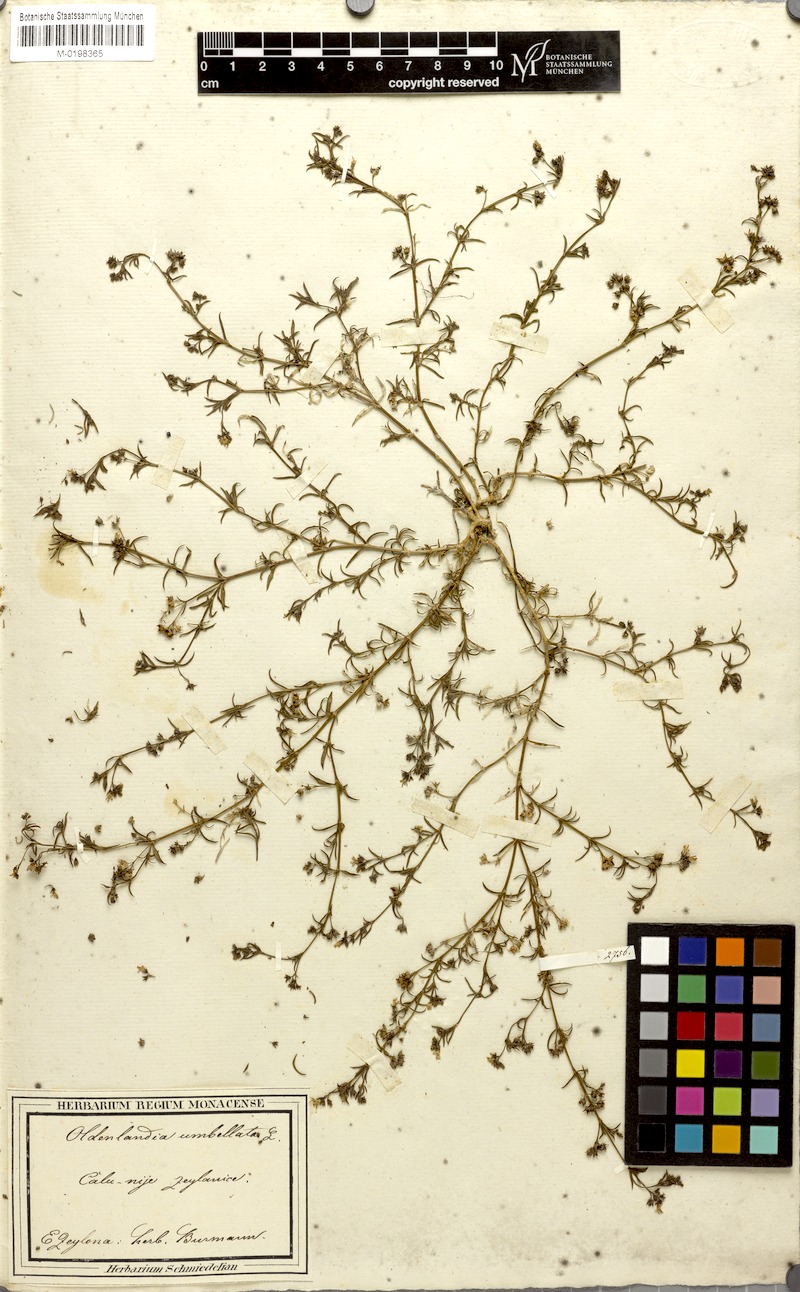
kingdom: Plantae
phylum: Tracheophyta
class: Magnoliopsida
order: Gentianales
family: Rubiaceae
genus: Oldenlandia
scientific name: Oldenlandia umbellata
